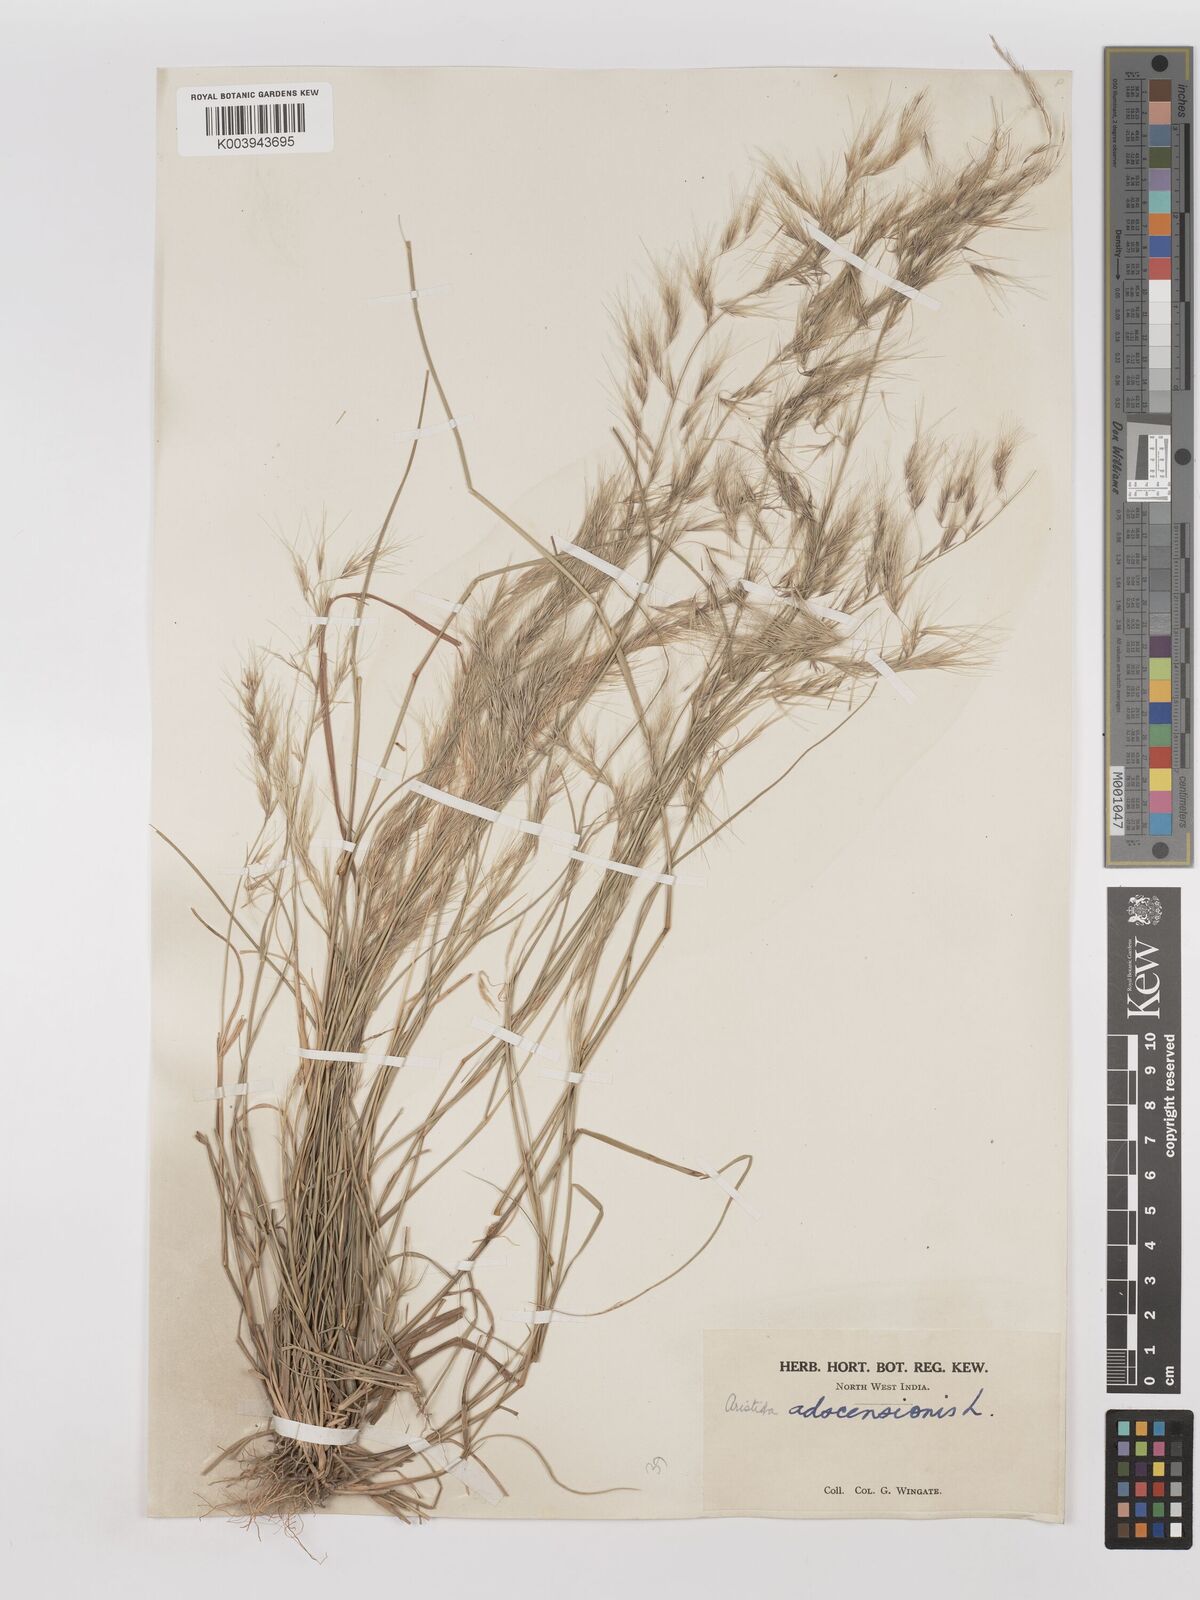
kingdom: Plantae
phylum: Tracheophyta
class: Liliopsida
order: Poales
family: Poaceae
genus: Aristida
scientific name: Aristida adscensionis
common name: Sixweeks threeawn
